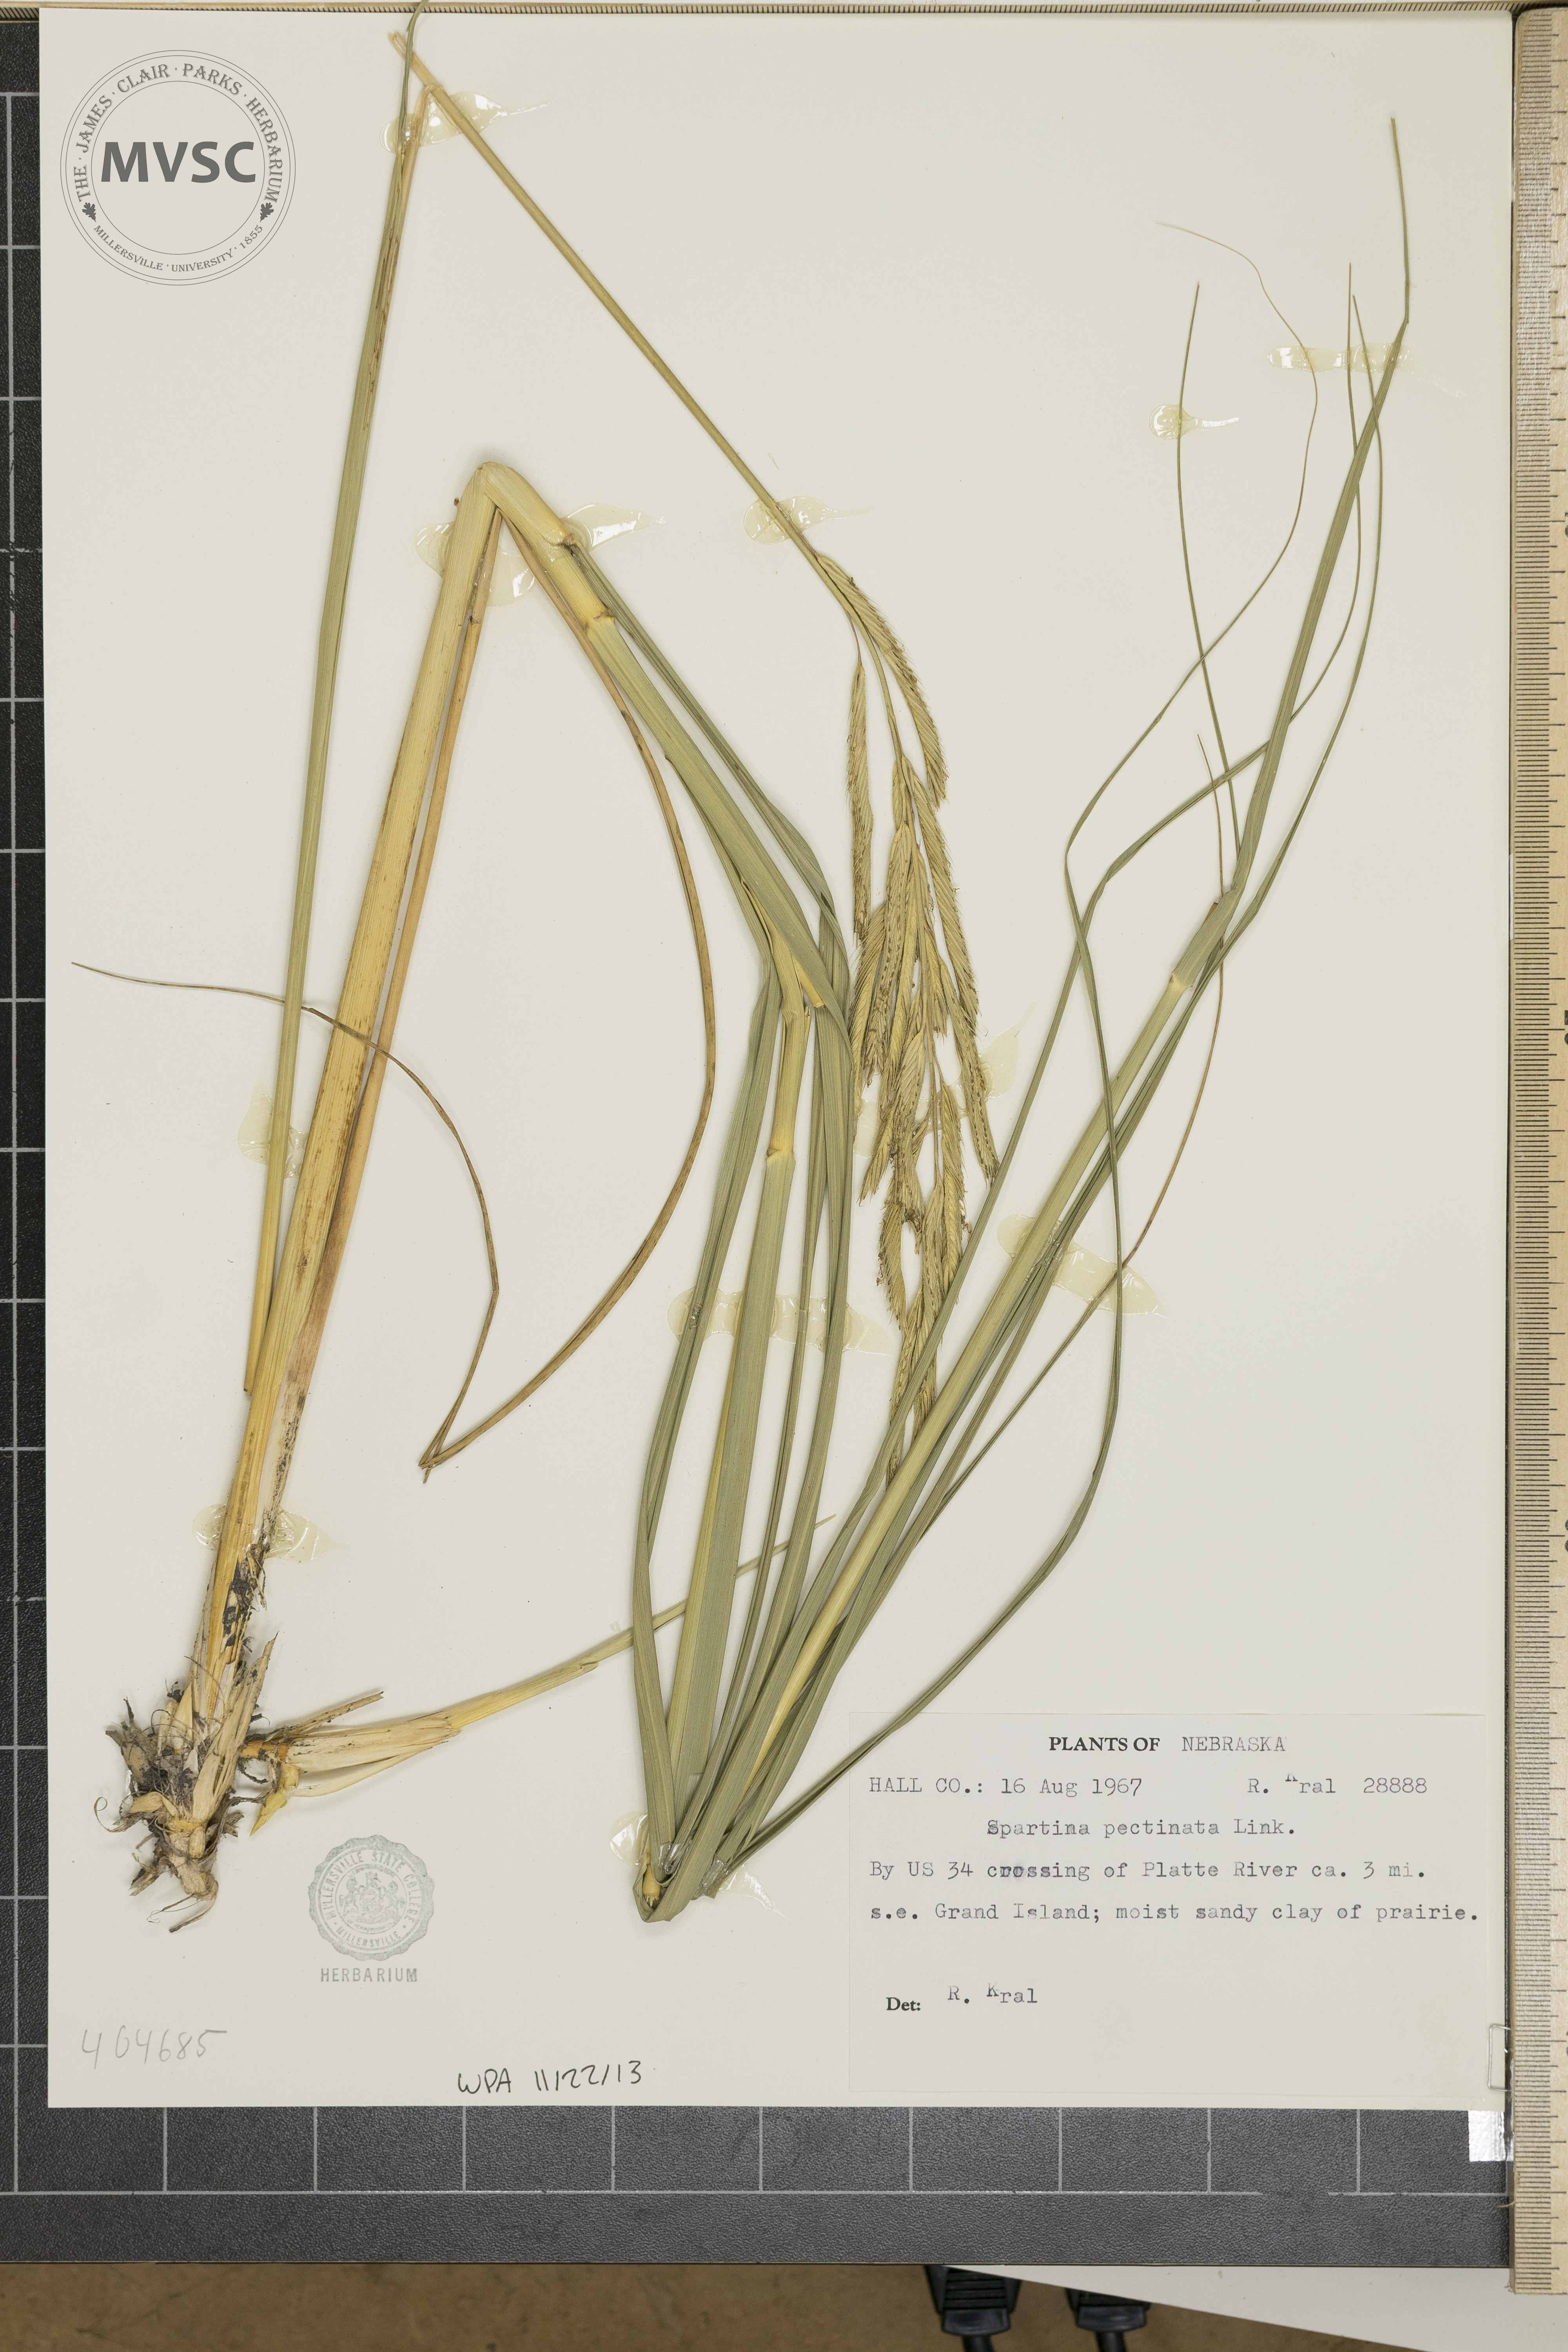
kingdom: Plantae
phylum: Tracheophyta
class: Liliopsida
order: Poales
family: Poaceae
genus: Sporobolus
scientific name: Sporobolus michauxianus
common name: Freshwater cordgrass
